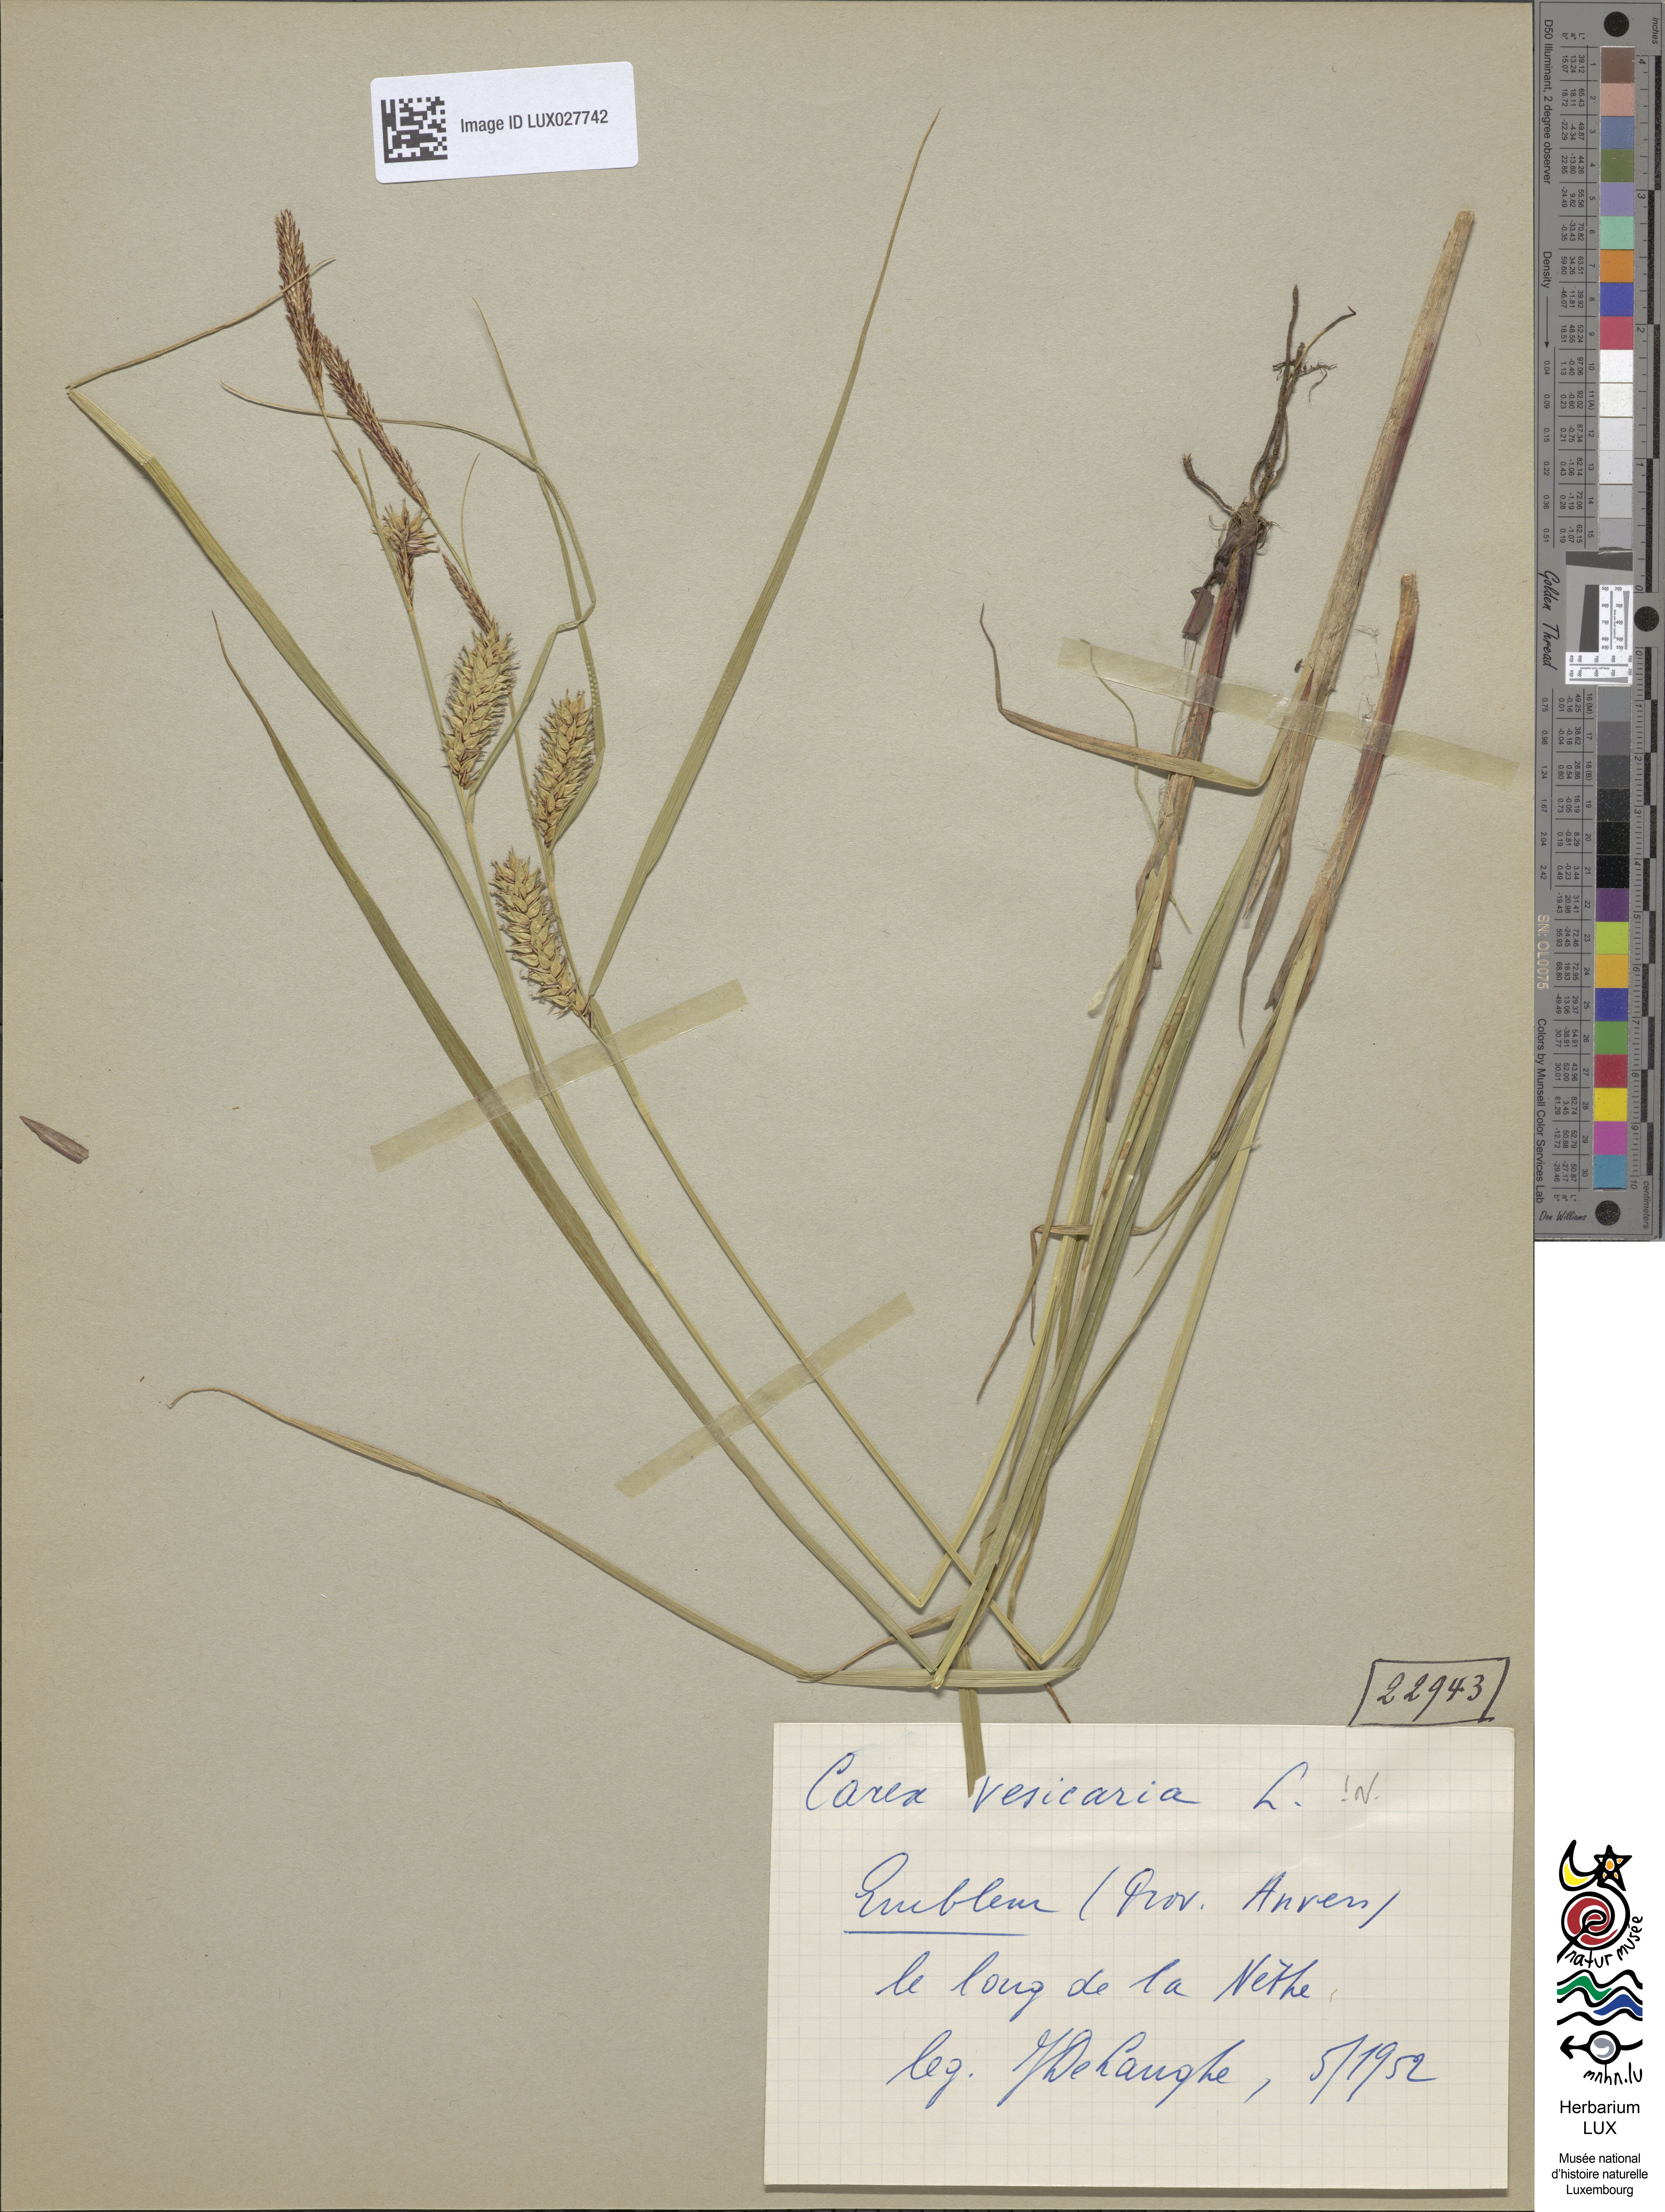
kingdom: Plantae
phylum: Tracheophyta
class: Liliopsida
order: Poales
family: Cyperaceae
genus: Carex
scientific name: Carex vesicaria
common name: Bladder-sedge
